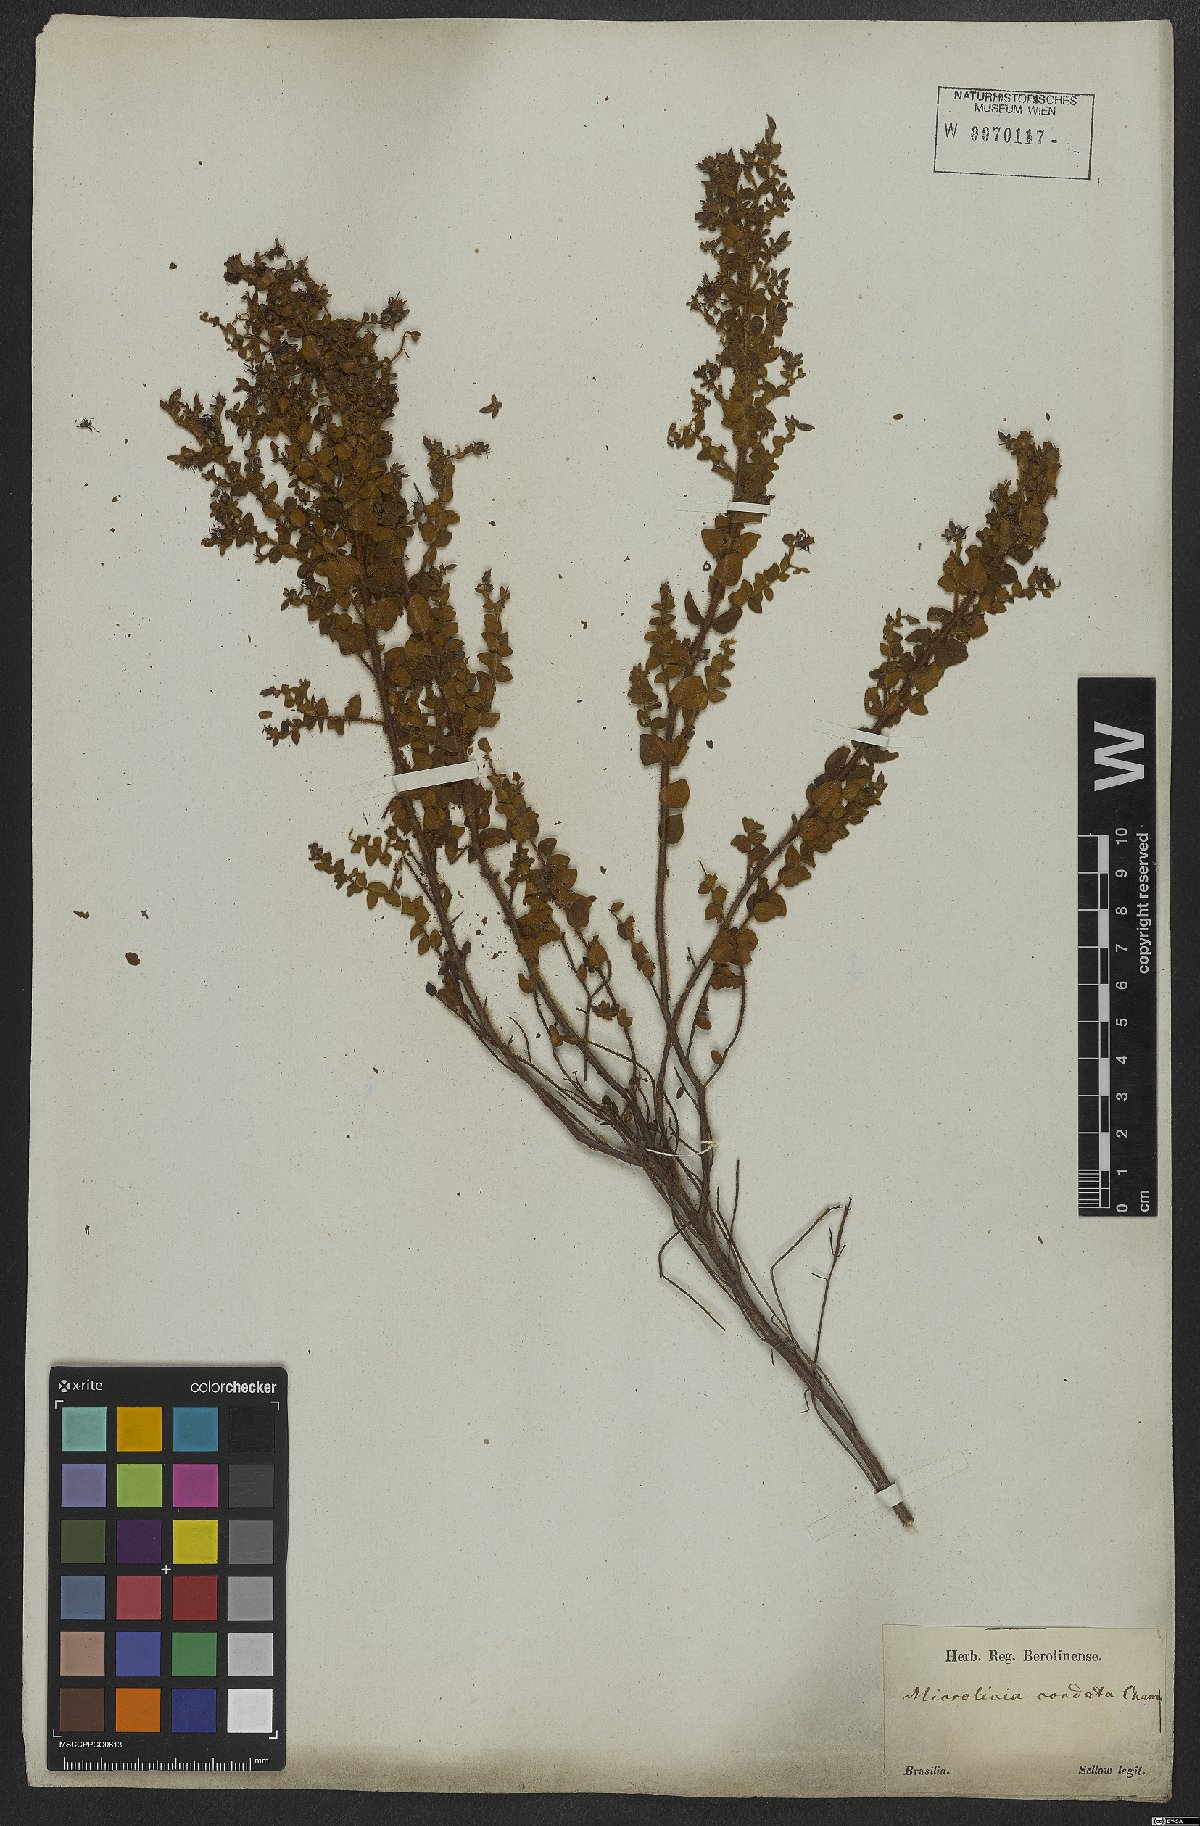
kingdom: Plantae
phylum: Tracheophyta
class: Magnoliopsida
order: Myrtales
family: Melastomataceae
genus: Microlicia
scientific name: Microlicia cordata
